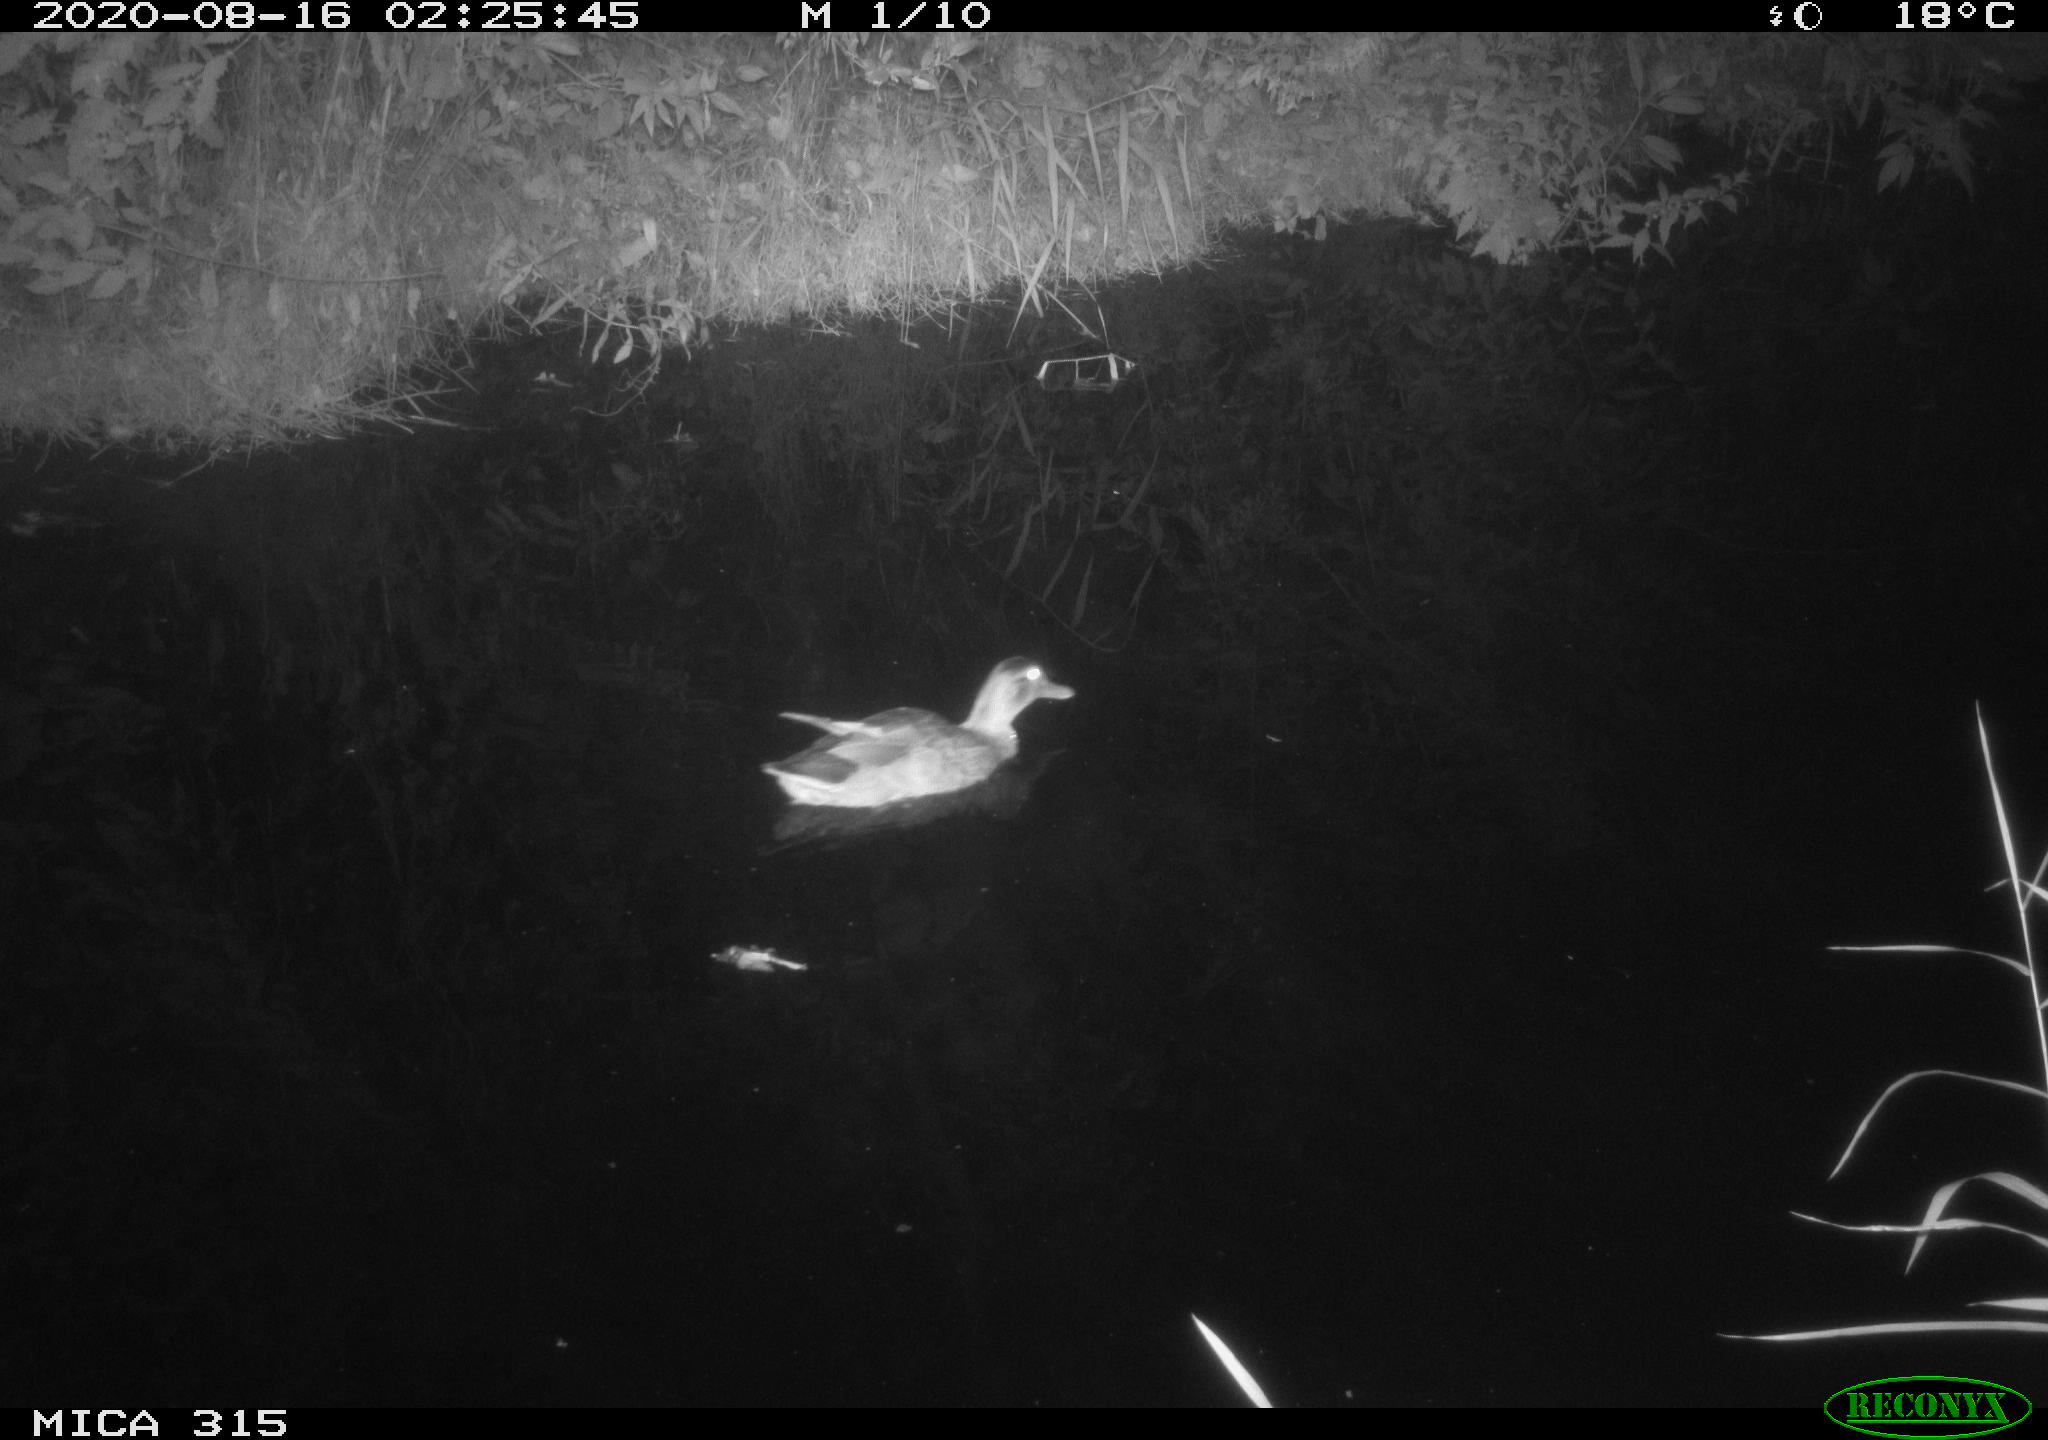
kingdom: Animalia
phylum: Chordata
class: Aves
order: Anseriformes
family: Anatidae
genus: Anas
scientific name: Anas platyrhynchos
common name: Mallard
